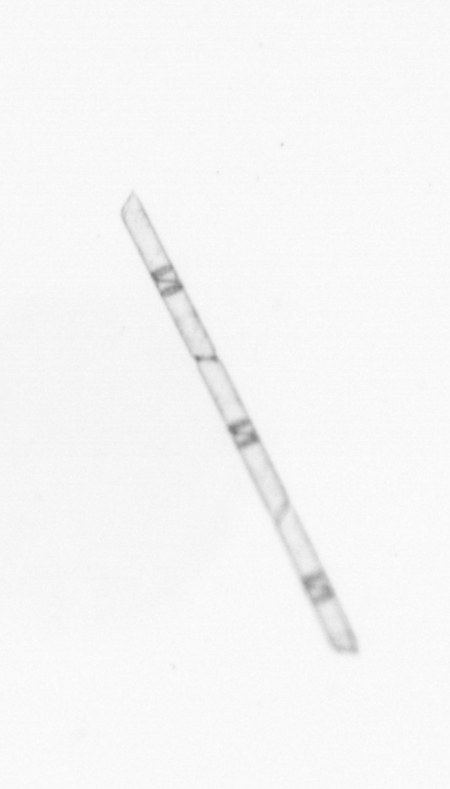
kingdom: Chromista
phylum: Ochrophyta
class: Bacillariophyceae
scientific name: Bacillariophyceae
